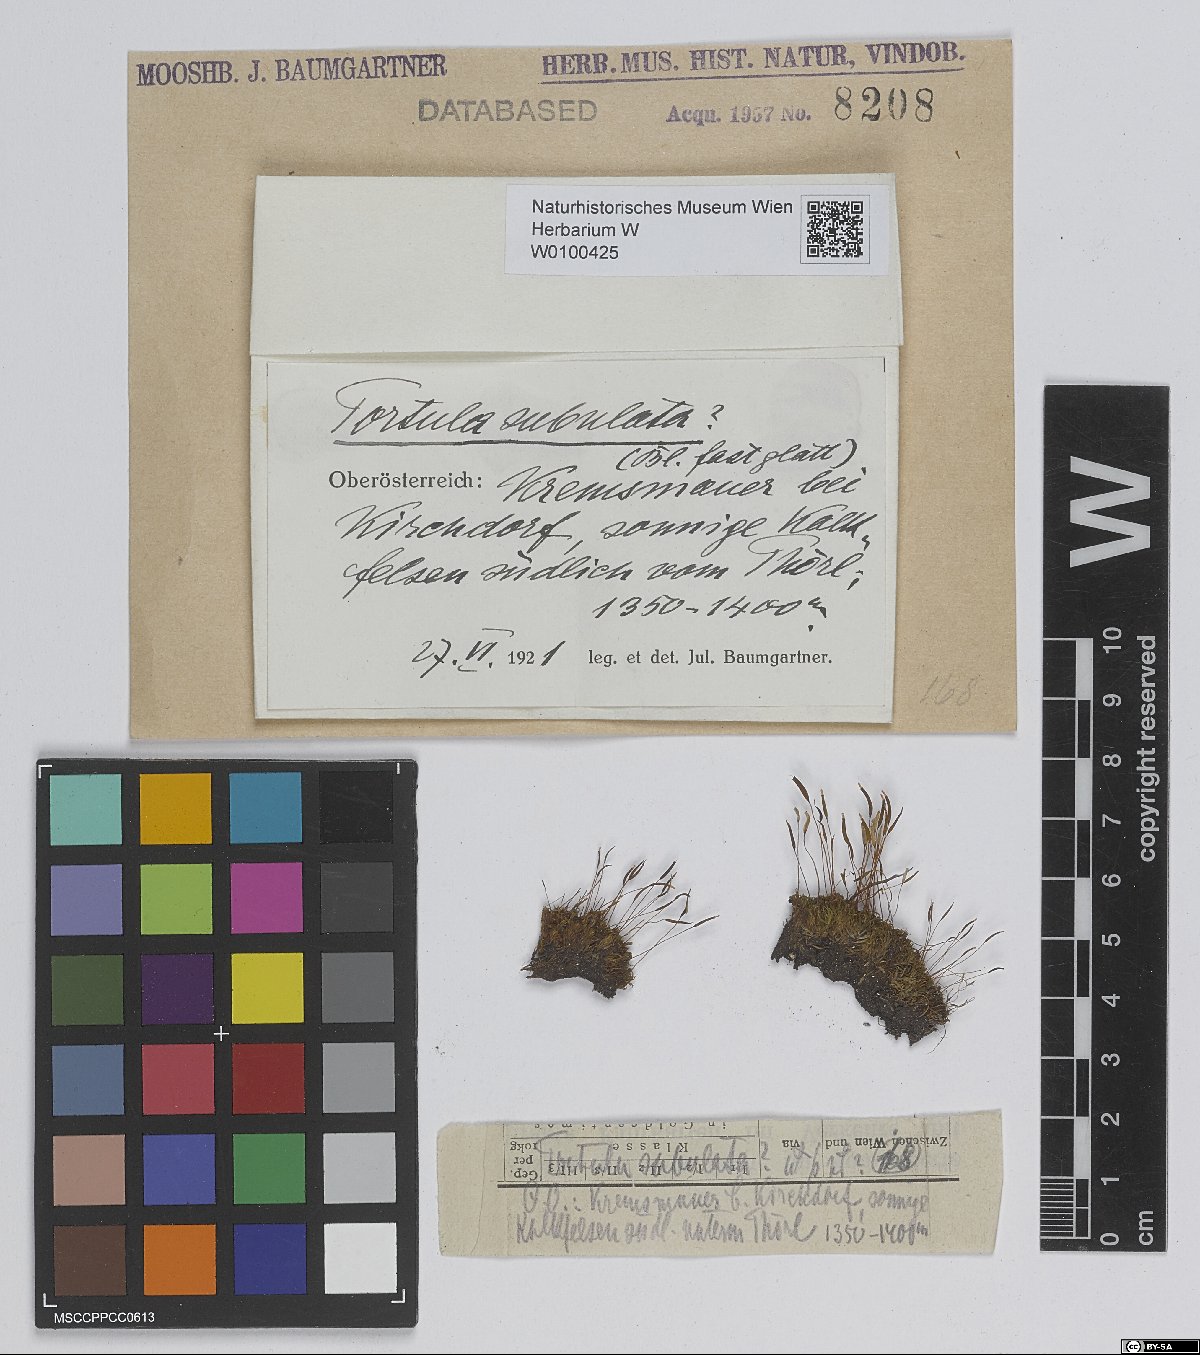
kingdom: Plantae
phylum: Bryophyta
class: Bryopsida
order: Pottiales
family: Pottiaceae
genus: Tortula
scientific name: Tortula subulata
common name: Upright screw-moss
